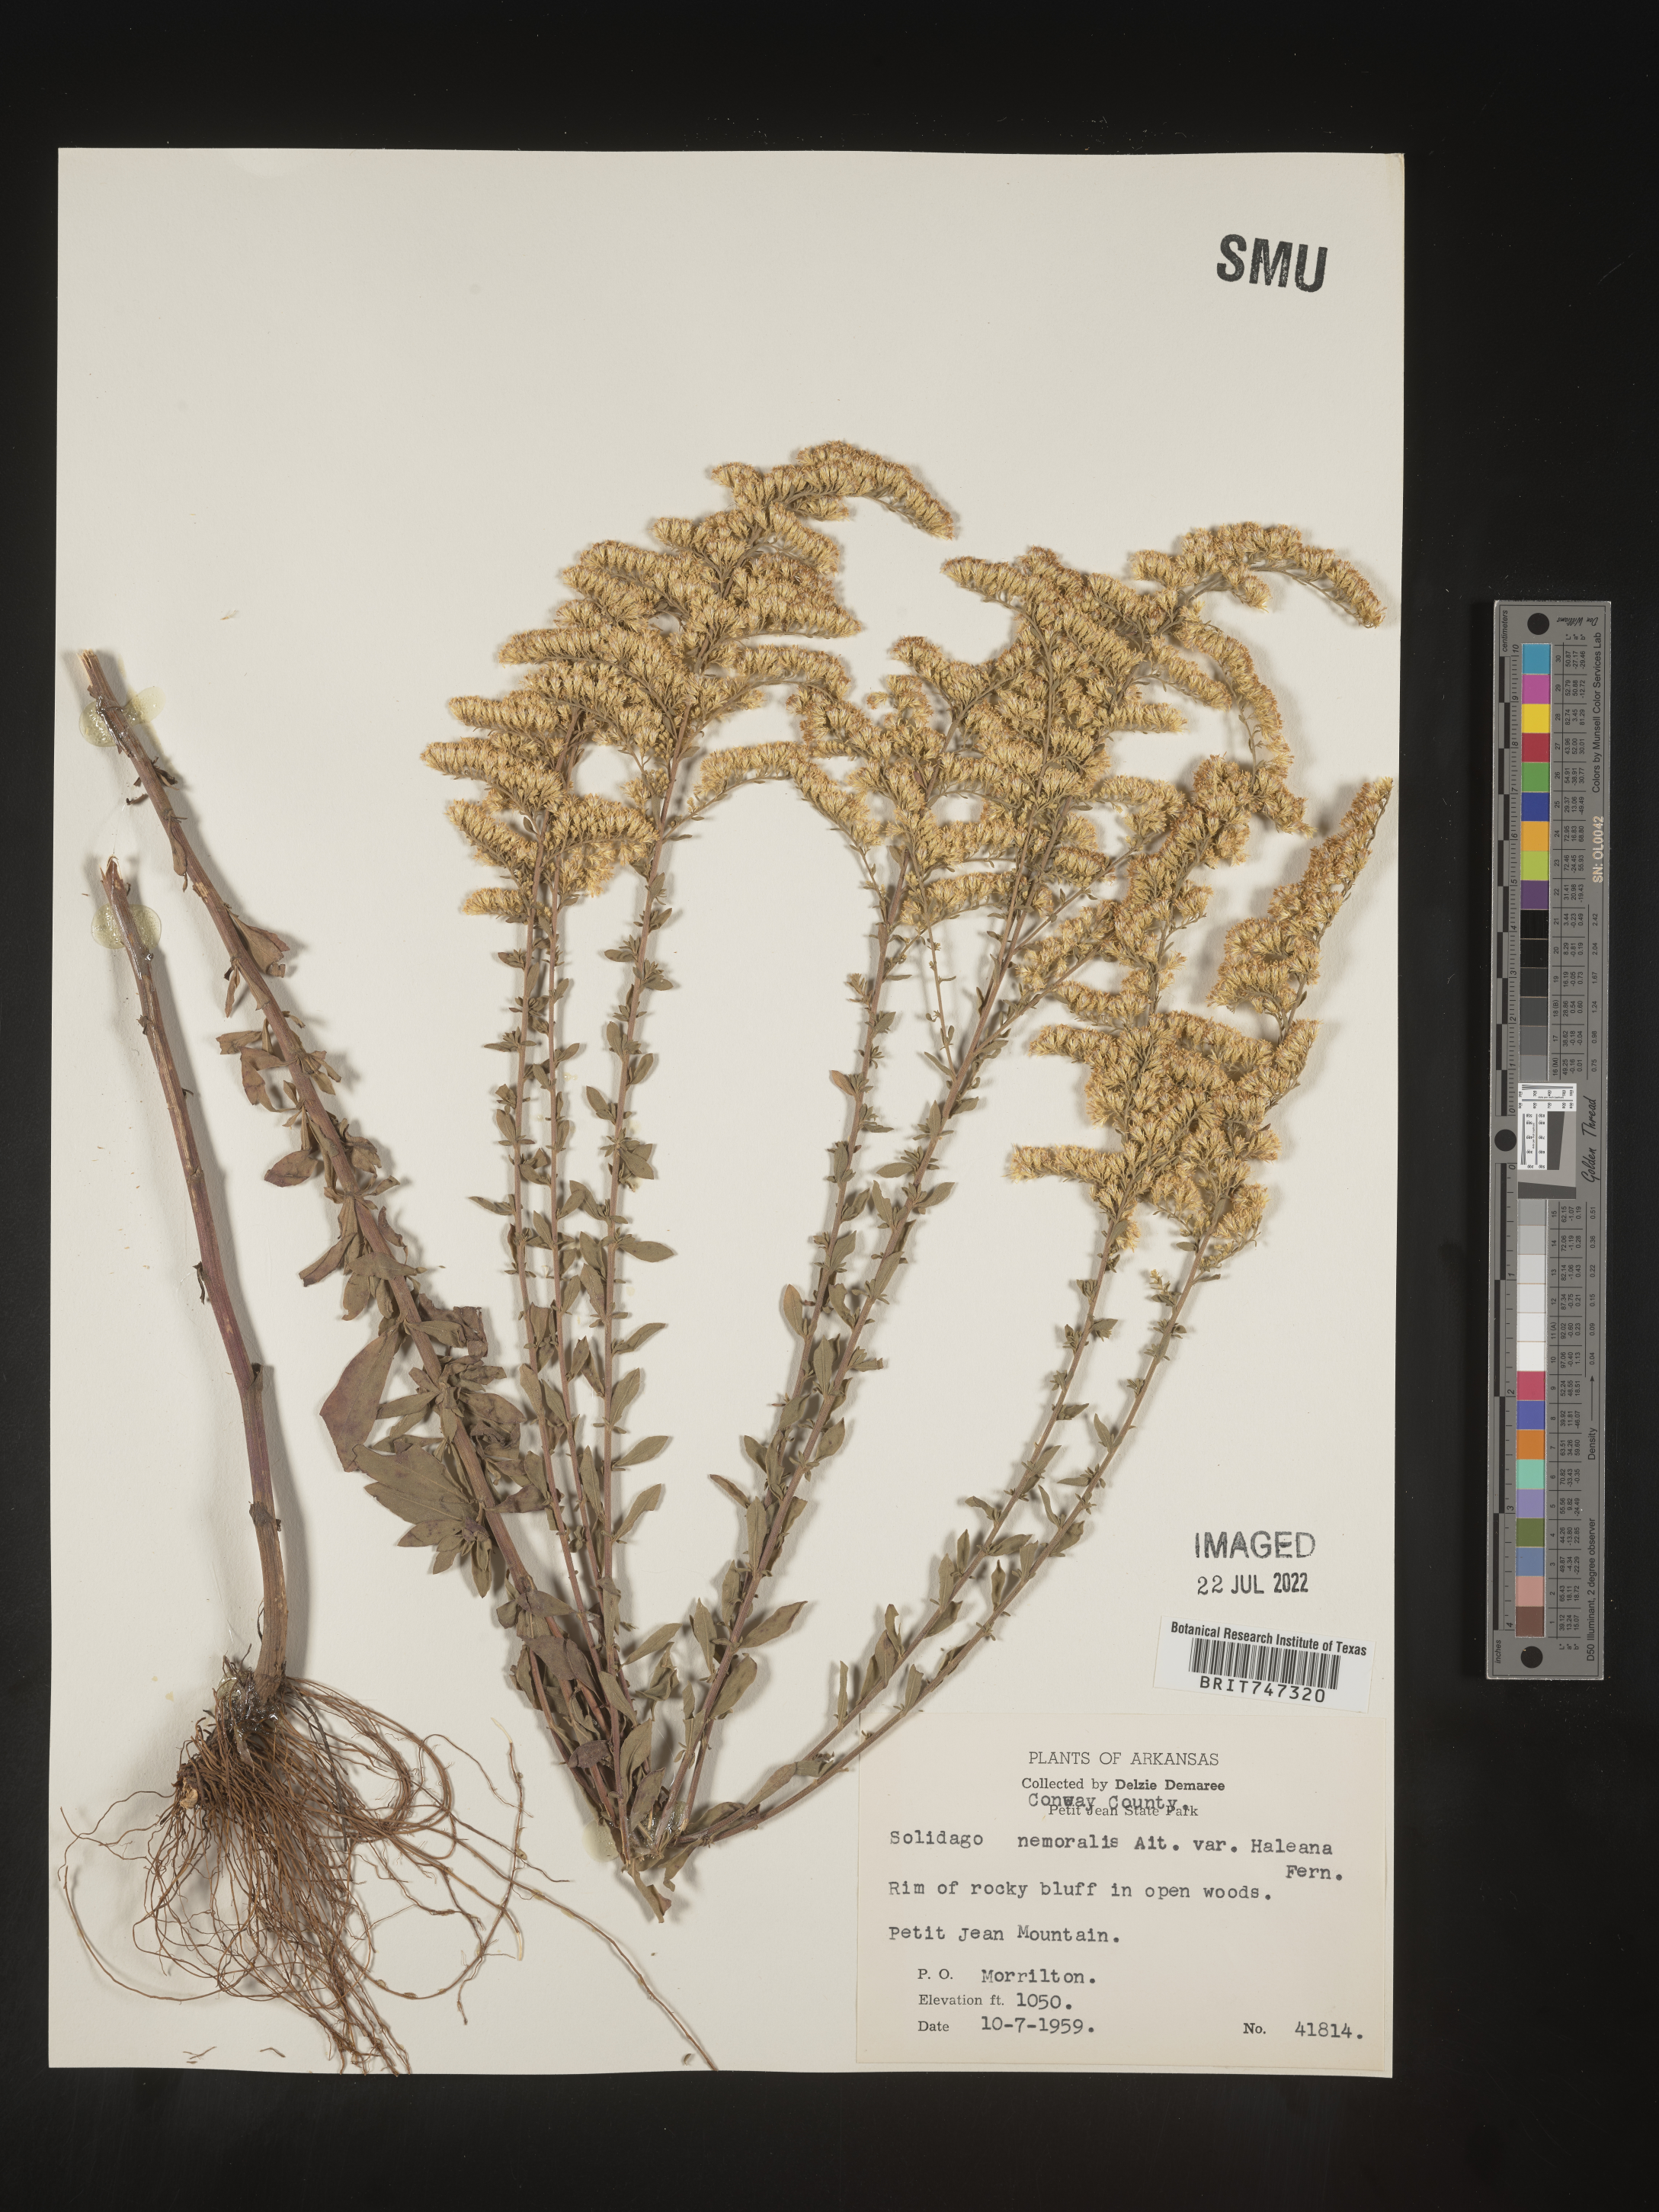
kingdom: Plantae
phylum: Tracheophyta
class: Magnoliopsida
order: Asterales
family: Asteraceae
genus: Solidago
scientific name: Solidago nemoralis
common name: Grey goldenrod
